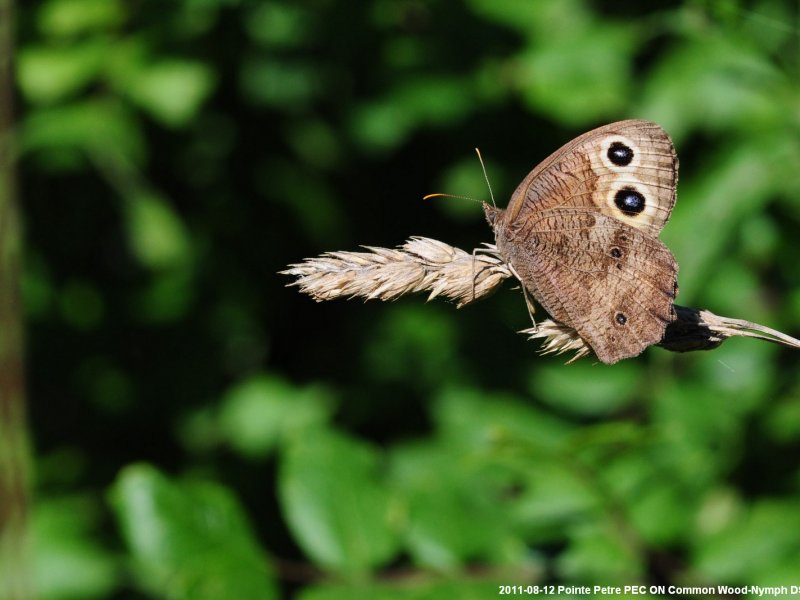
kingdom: Animalia
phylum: Arthropoda
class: Insecta
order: Lepidoptera
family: Nymphalidae
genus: Cercyonis
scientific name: Cercyonis pegala
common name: Common Wood-Nymph
